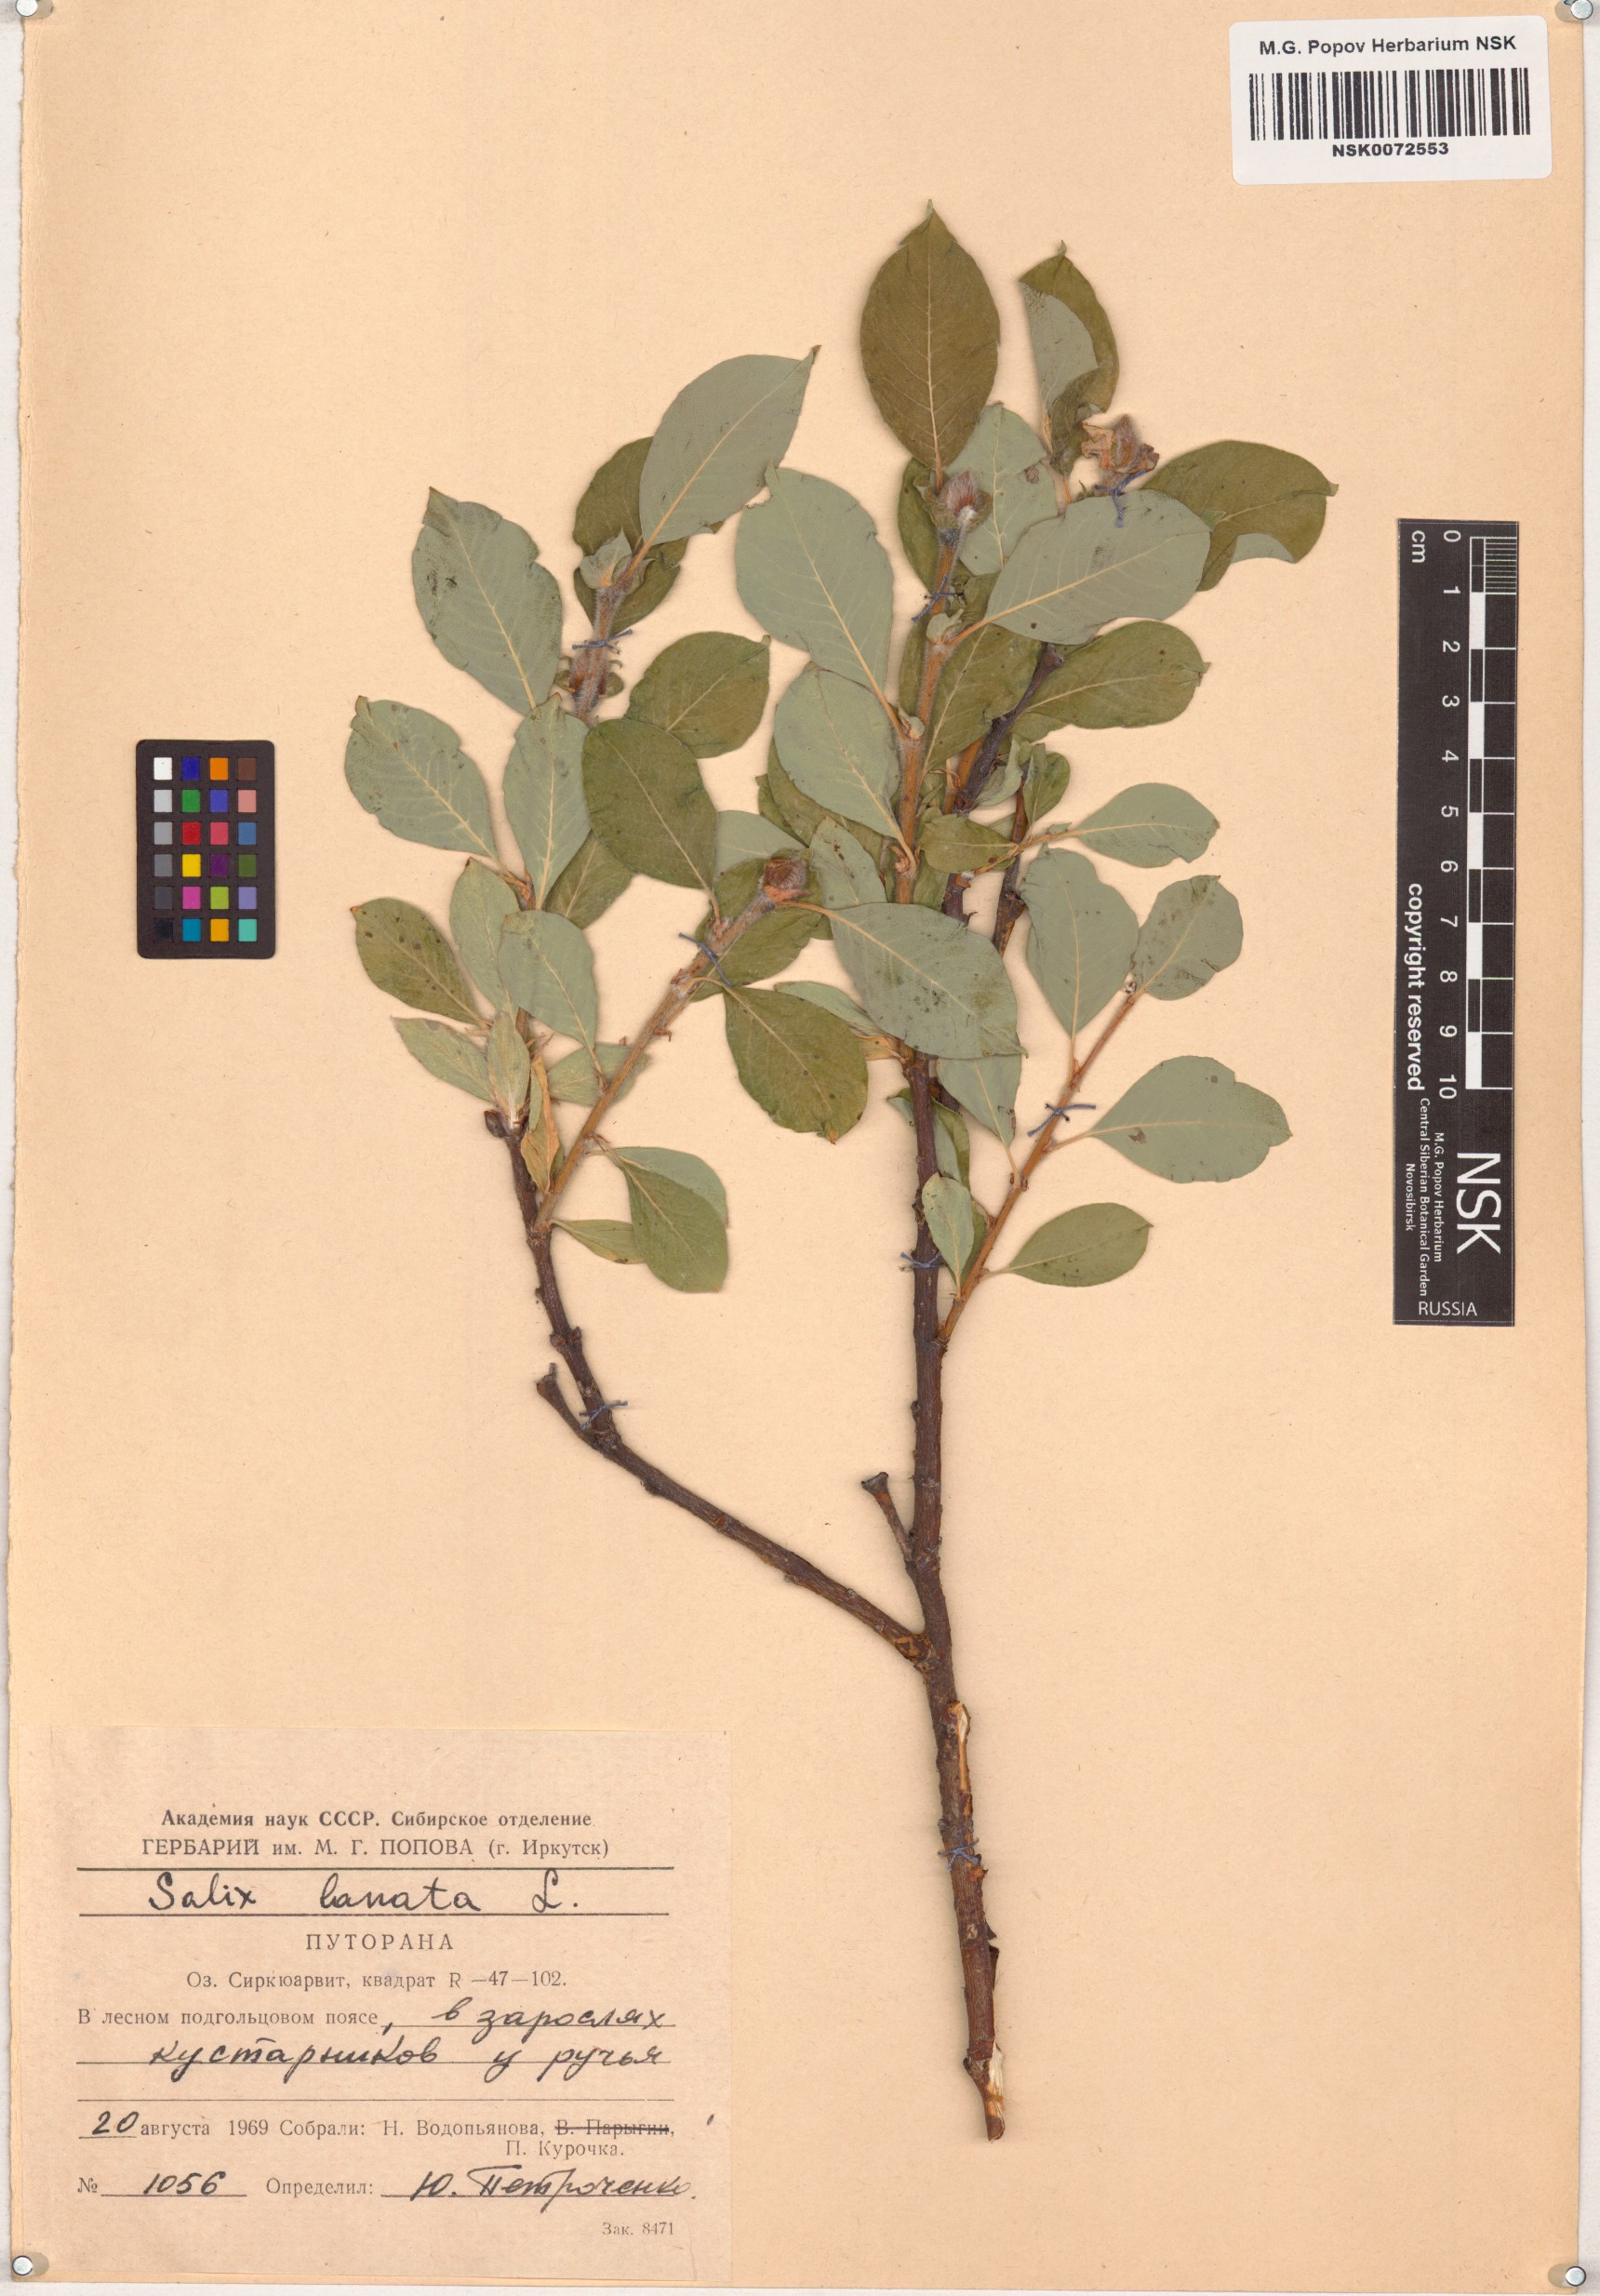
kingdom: Plantae
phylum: Tracheophyta
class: Magnoliopsida
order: Malpighiales
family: Salicaceae
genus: Salix
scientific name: Salix lanata
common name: Woolly willow
